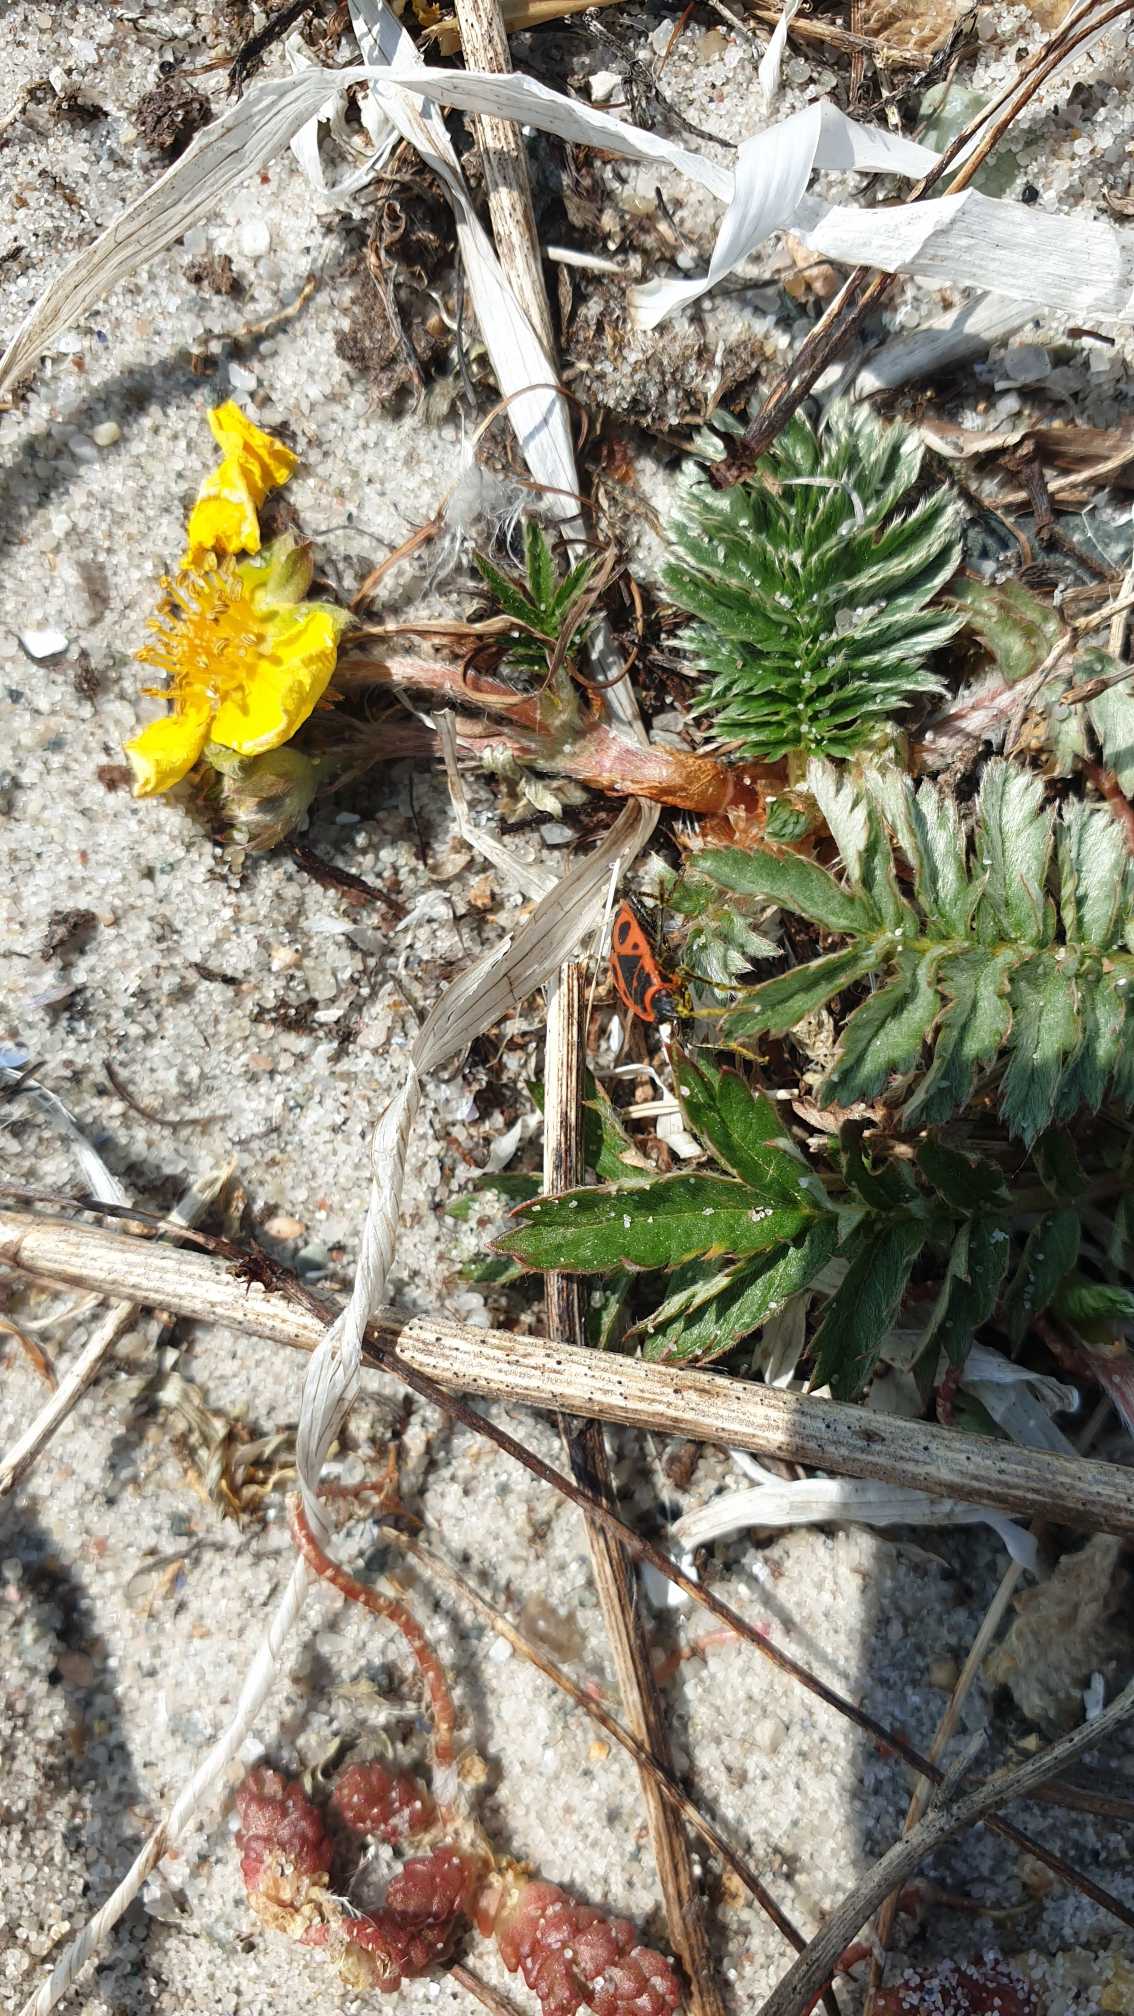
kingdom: Animalia
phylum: Arthropoda
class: Insecta
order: Hemiptera
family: Pyrrhocoridae
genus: Pyrrhocoris
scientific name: Pyrrhocoris apterus
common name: Ildtæge
